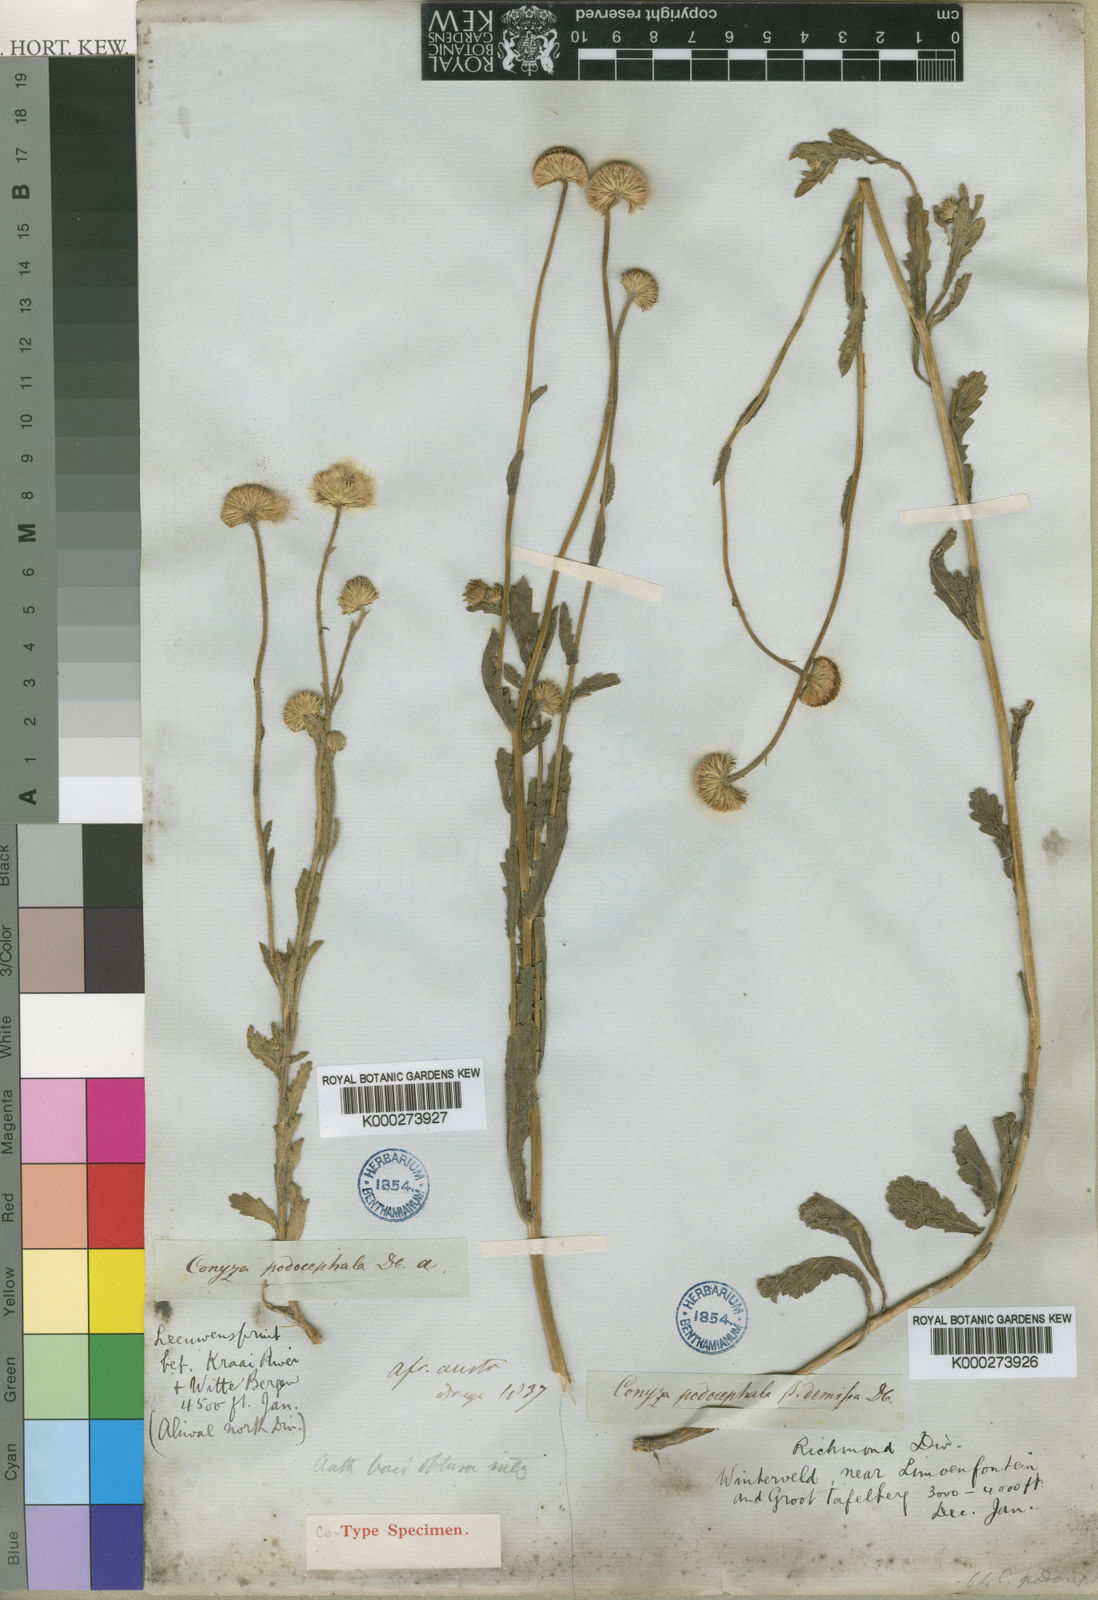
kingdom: Plantae
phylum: Tracheophyta
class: Magnoliopsida
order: Asterales
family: Asteraceae
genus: Nidorella
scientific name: Nidorella podocephala
